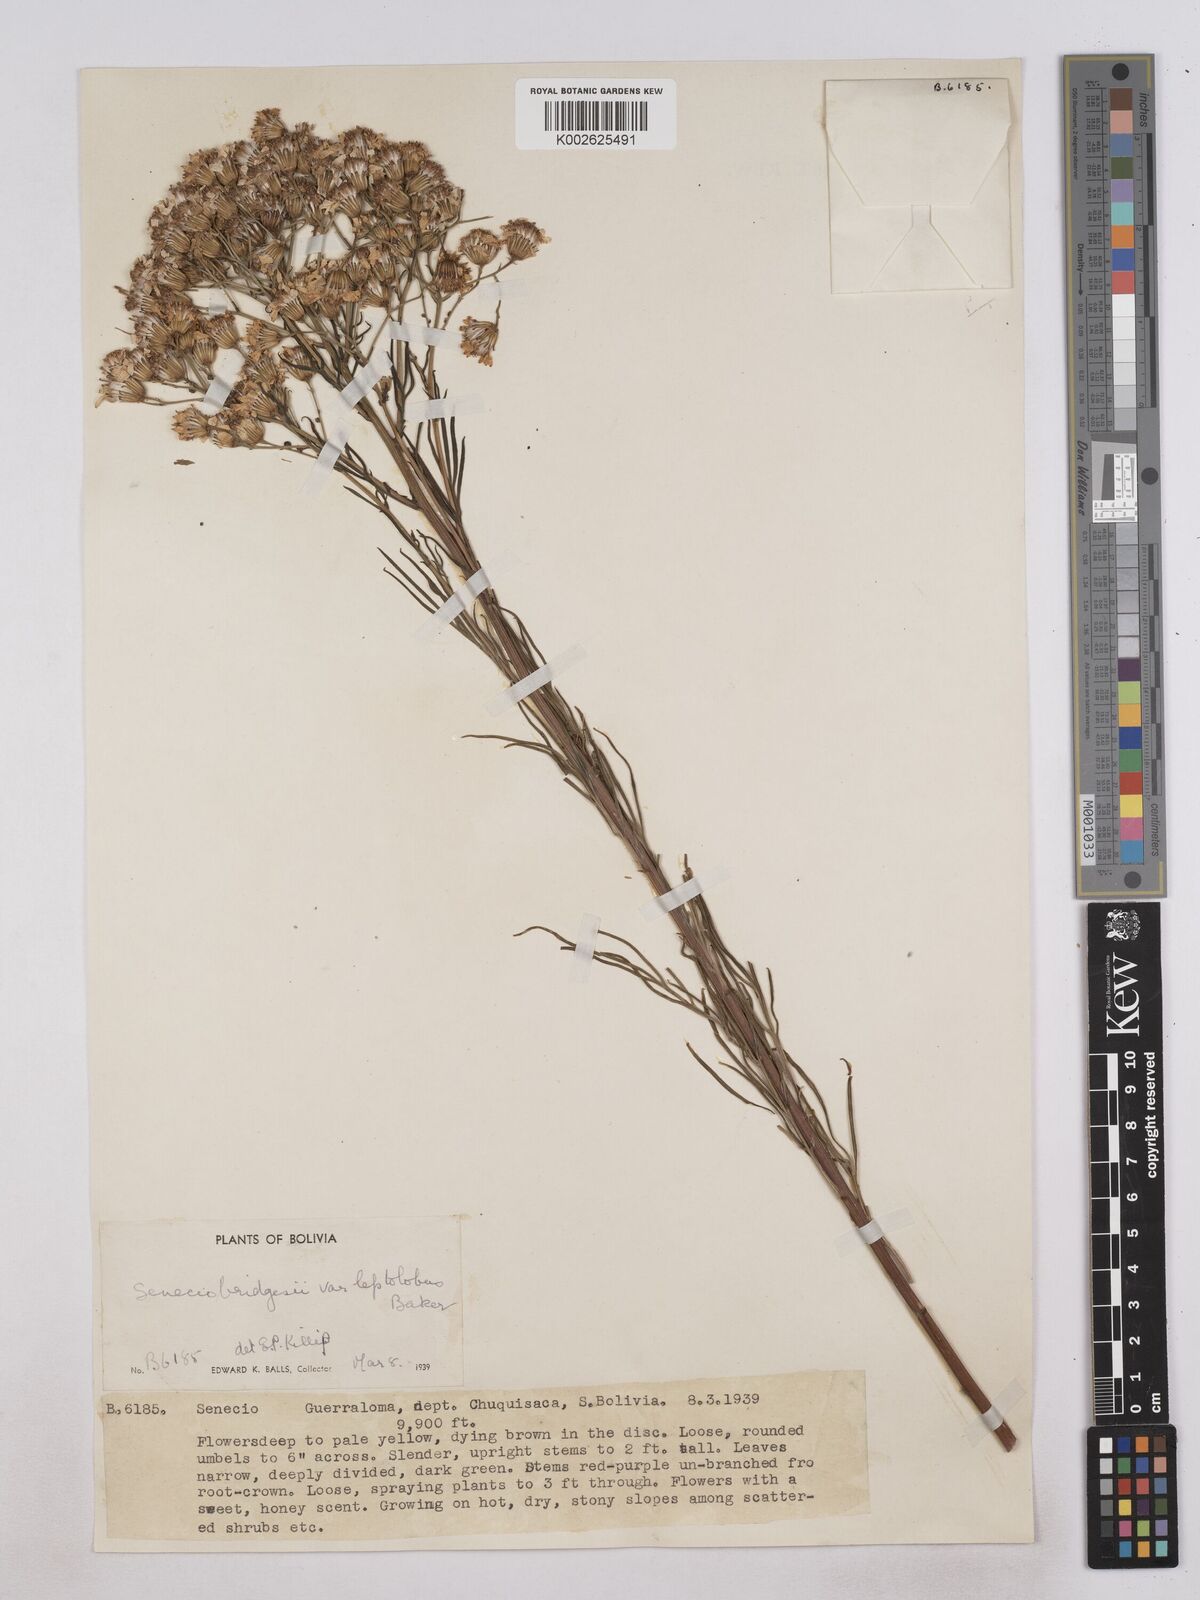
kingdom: Plantae
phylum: Tracheophyta
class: Magnoliopsida
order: Asterales
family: Asteraceae
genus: Senecio
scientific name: Senecio pampeanus
